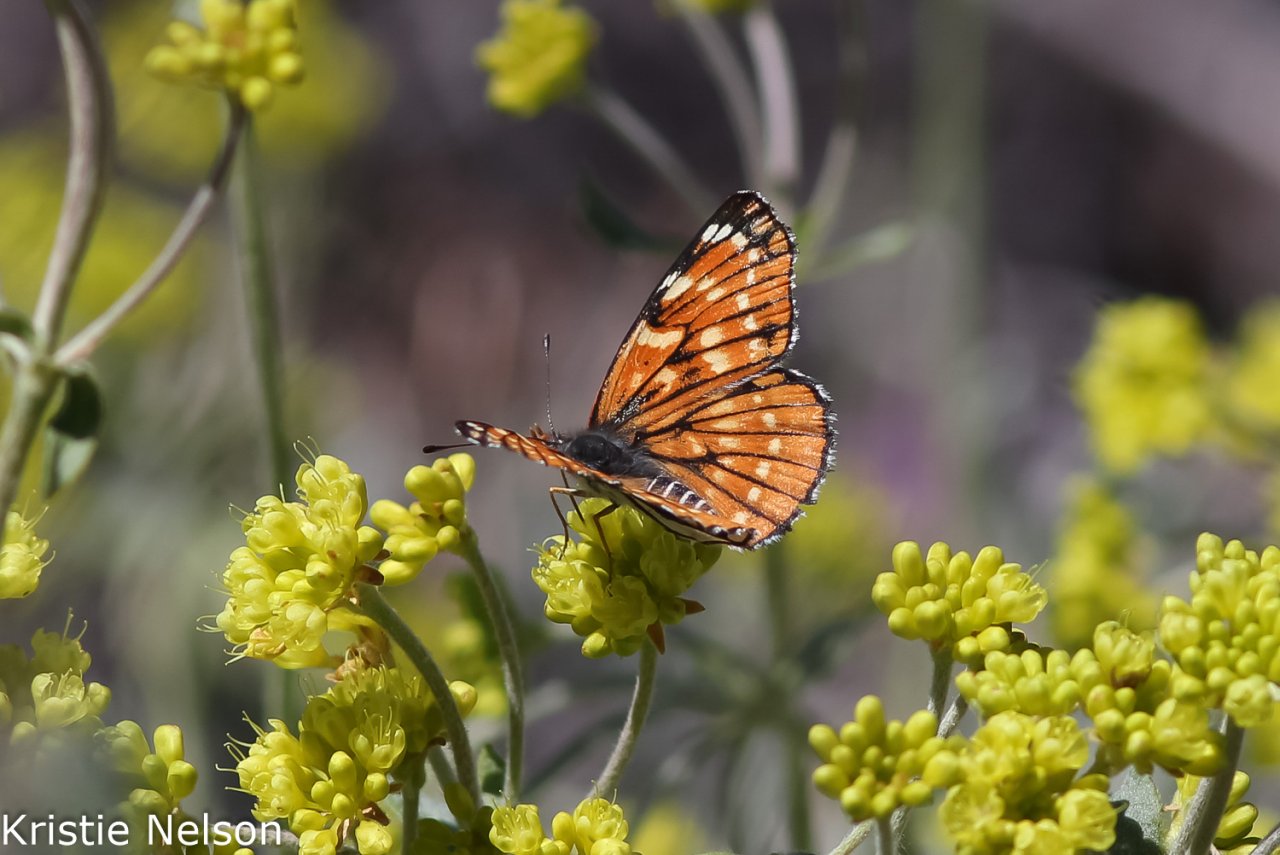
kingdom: Animalia
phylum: Arthropoda
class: Insecta
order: Lepidoptera
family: Nymphalidae
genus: Thessalia
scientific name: Thessalia leanira
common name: Leanira Checkerspot
